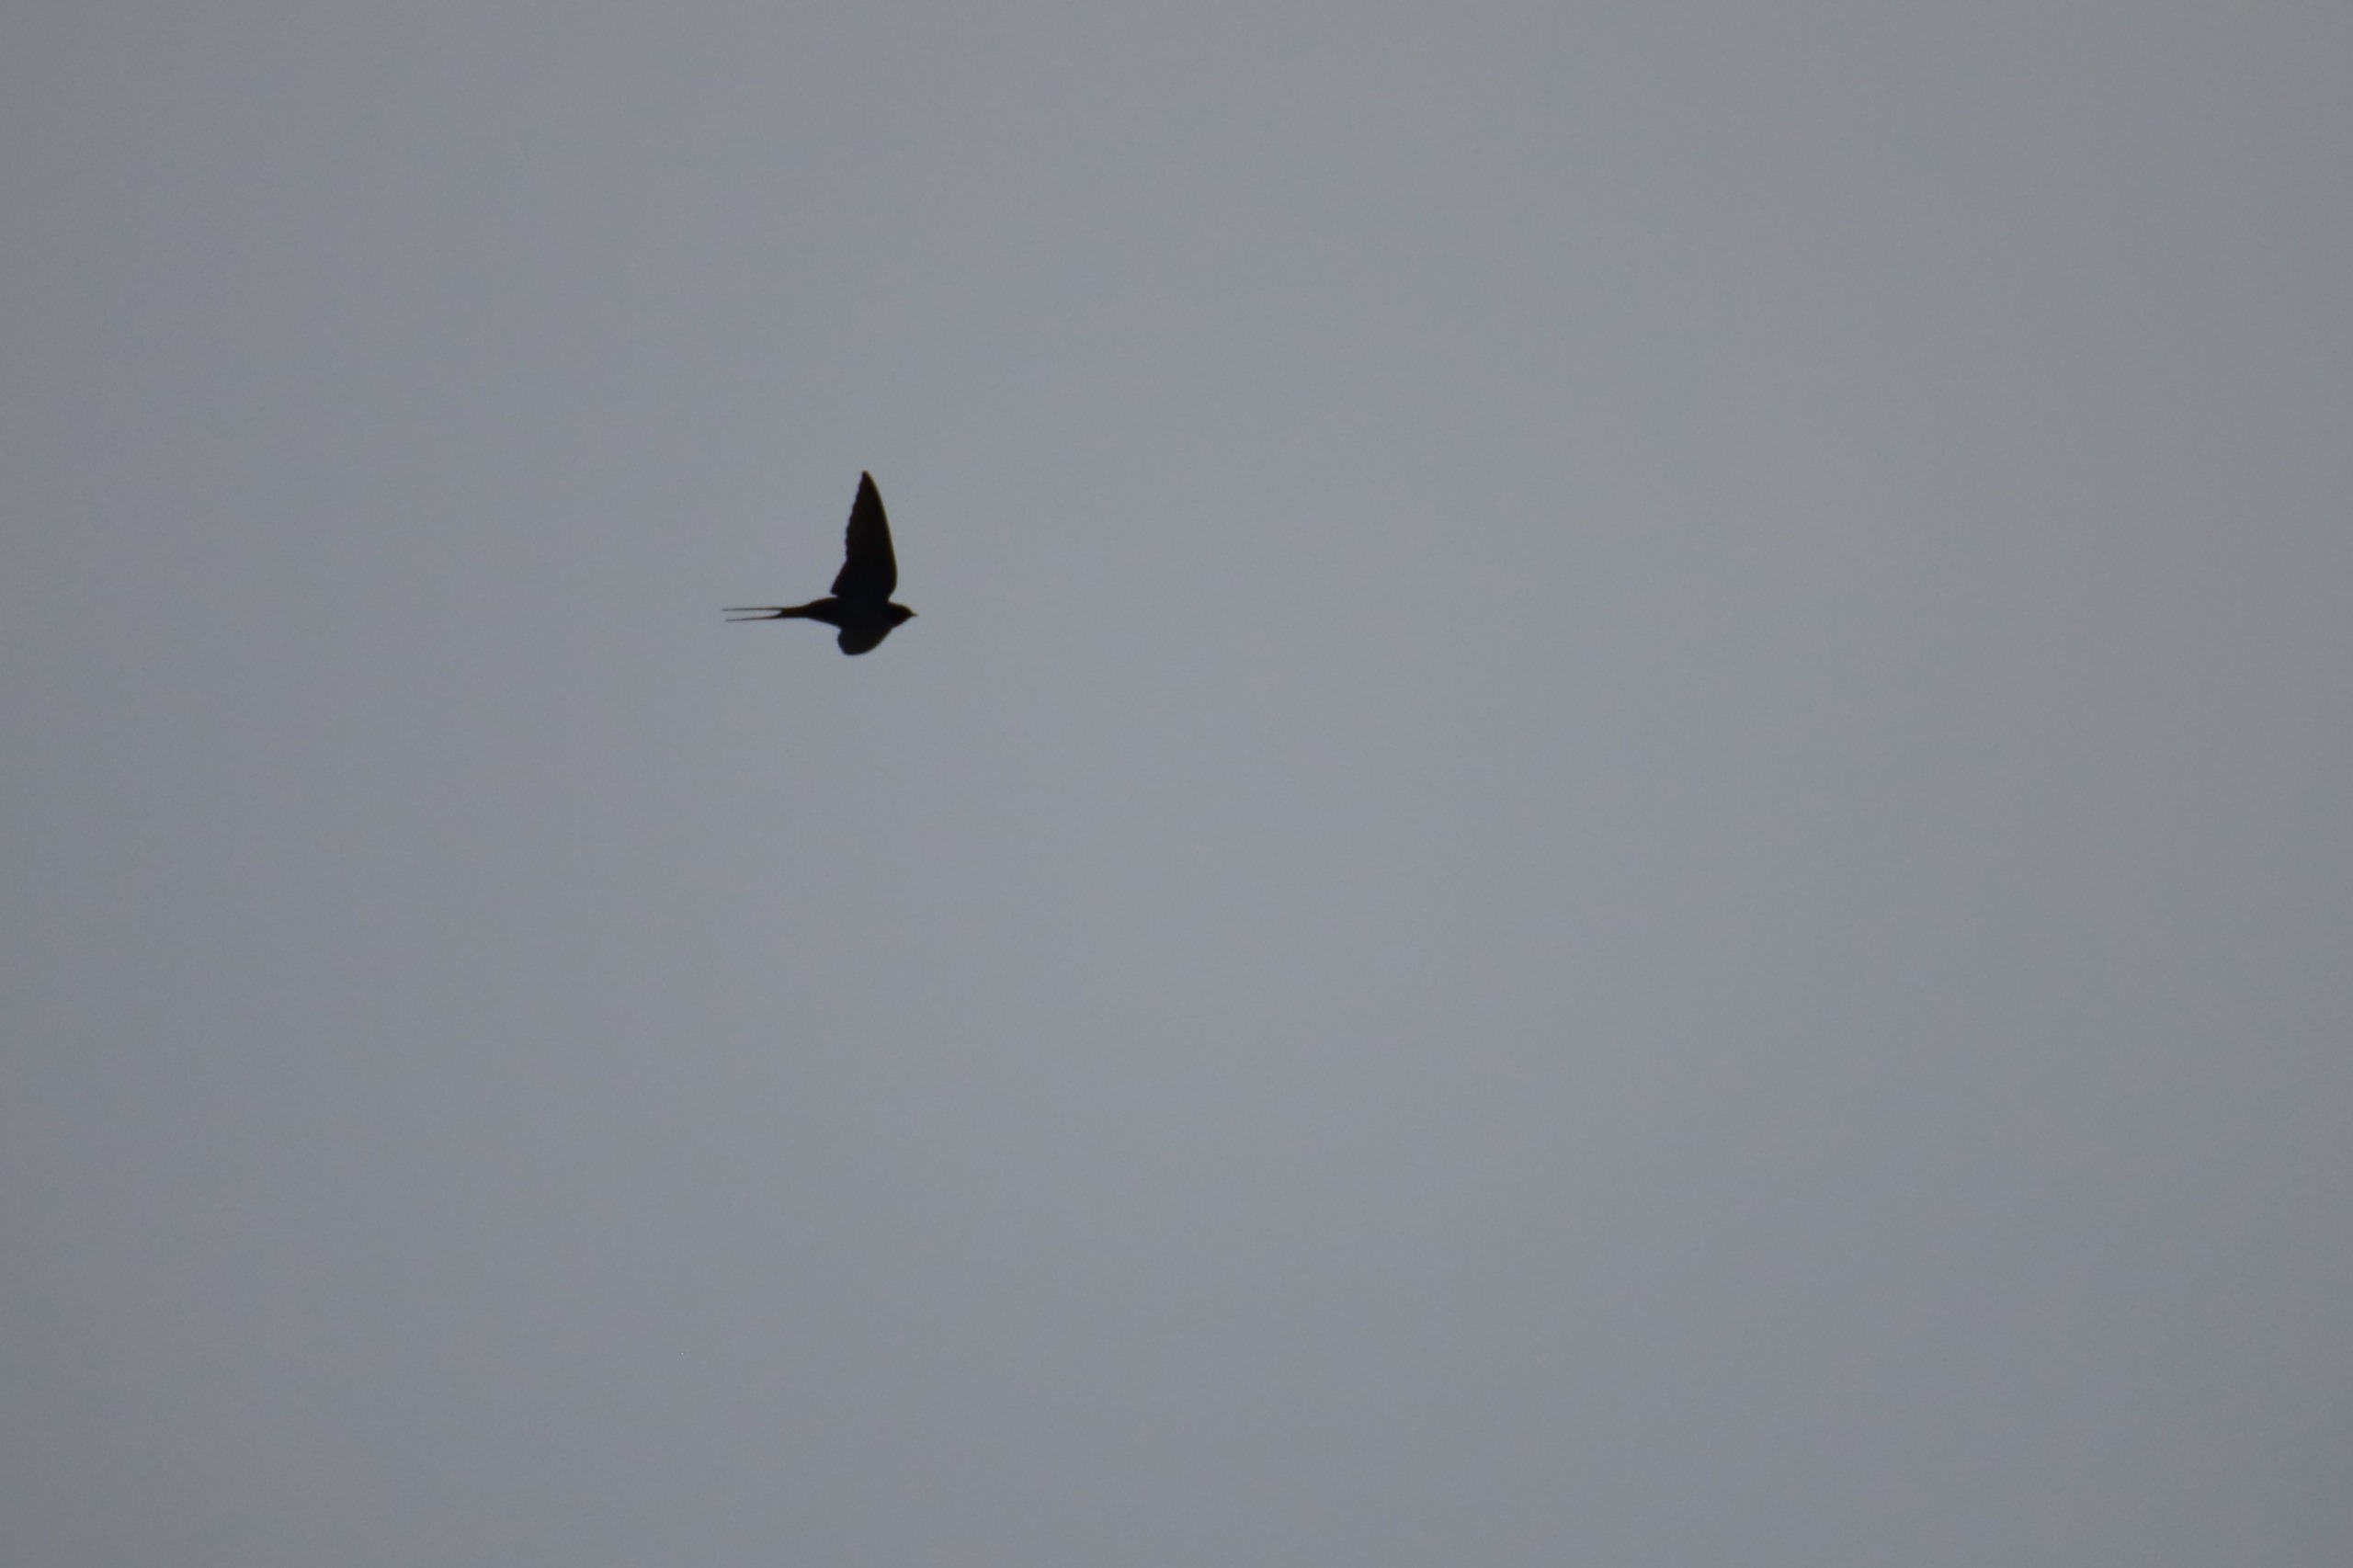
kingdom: Animalia
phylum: Chordata
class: Aves
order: Passeriformes
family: Hirundinidae
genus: Hirundo
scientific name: Hirundo rustica
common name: Landsvale
